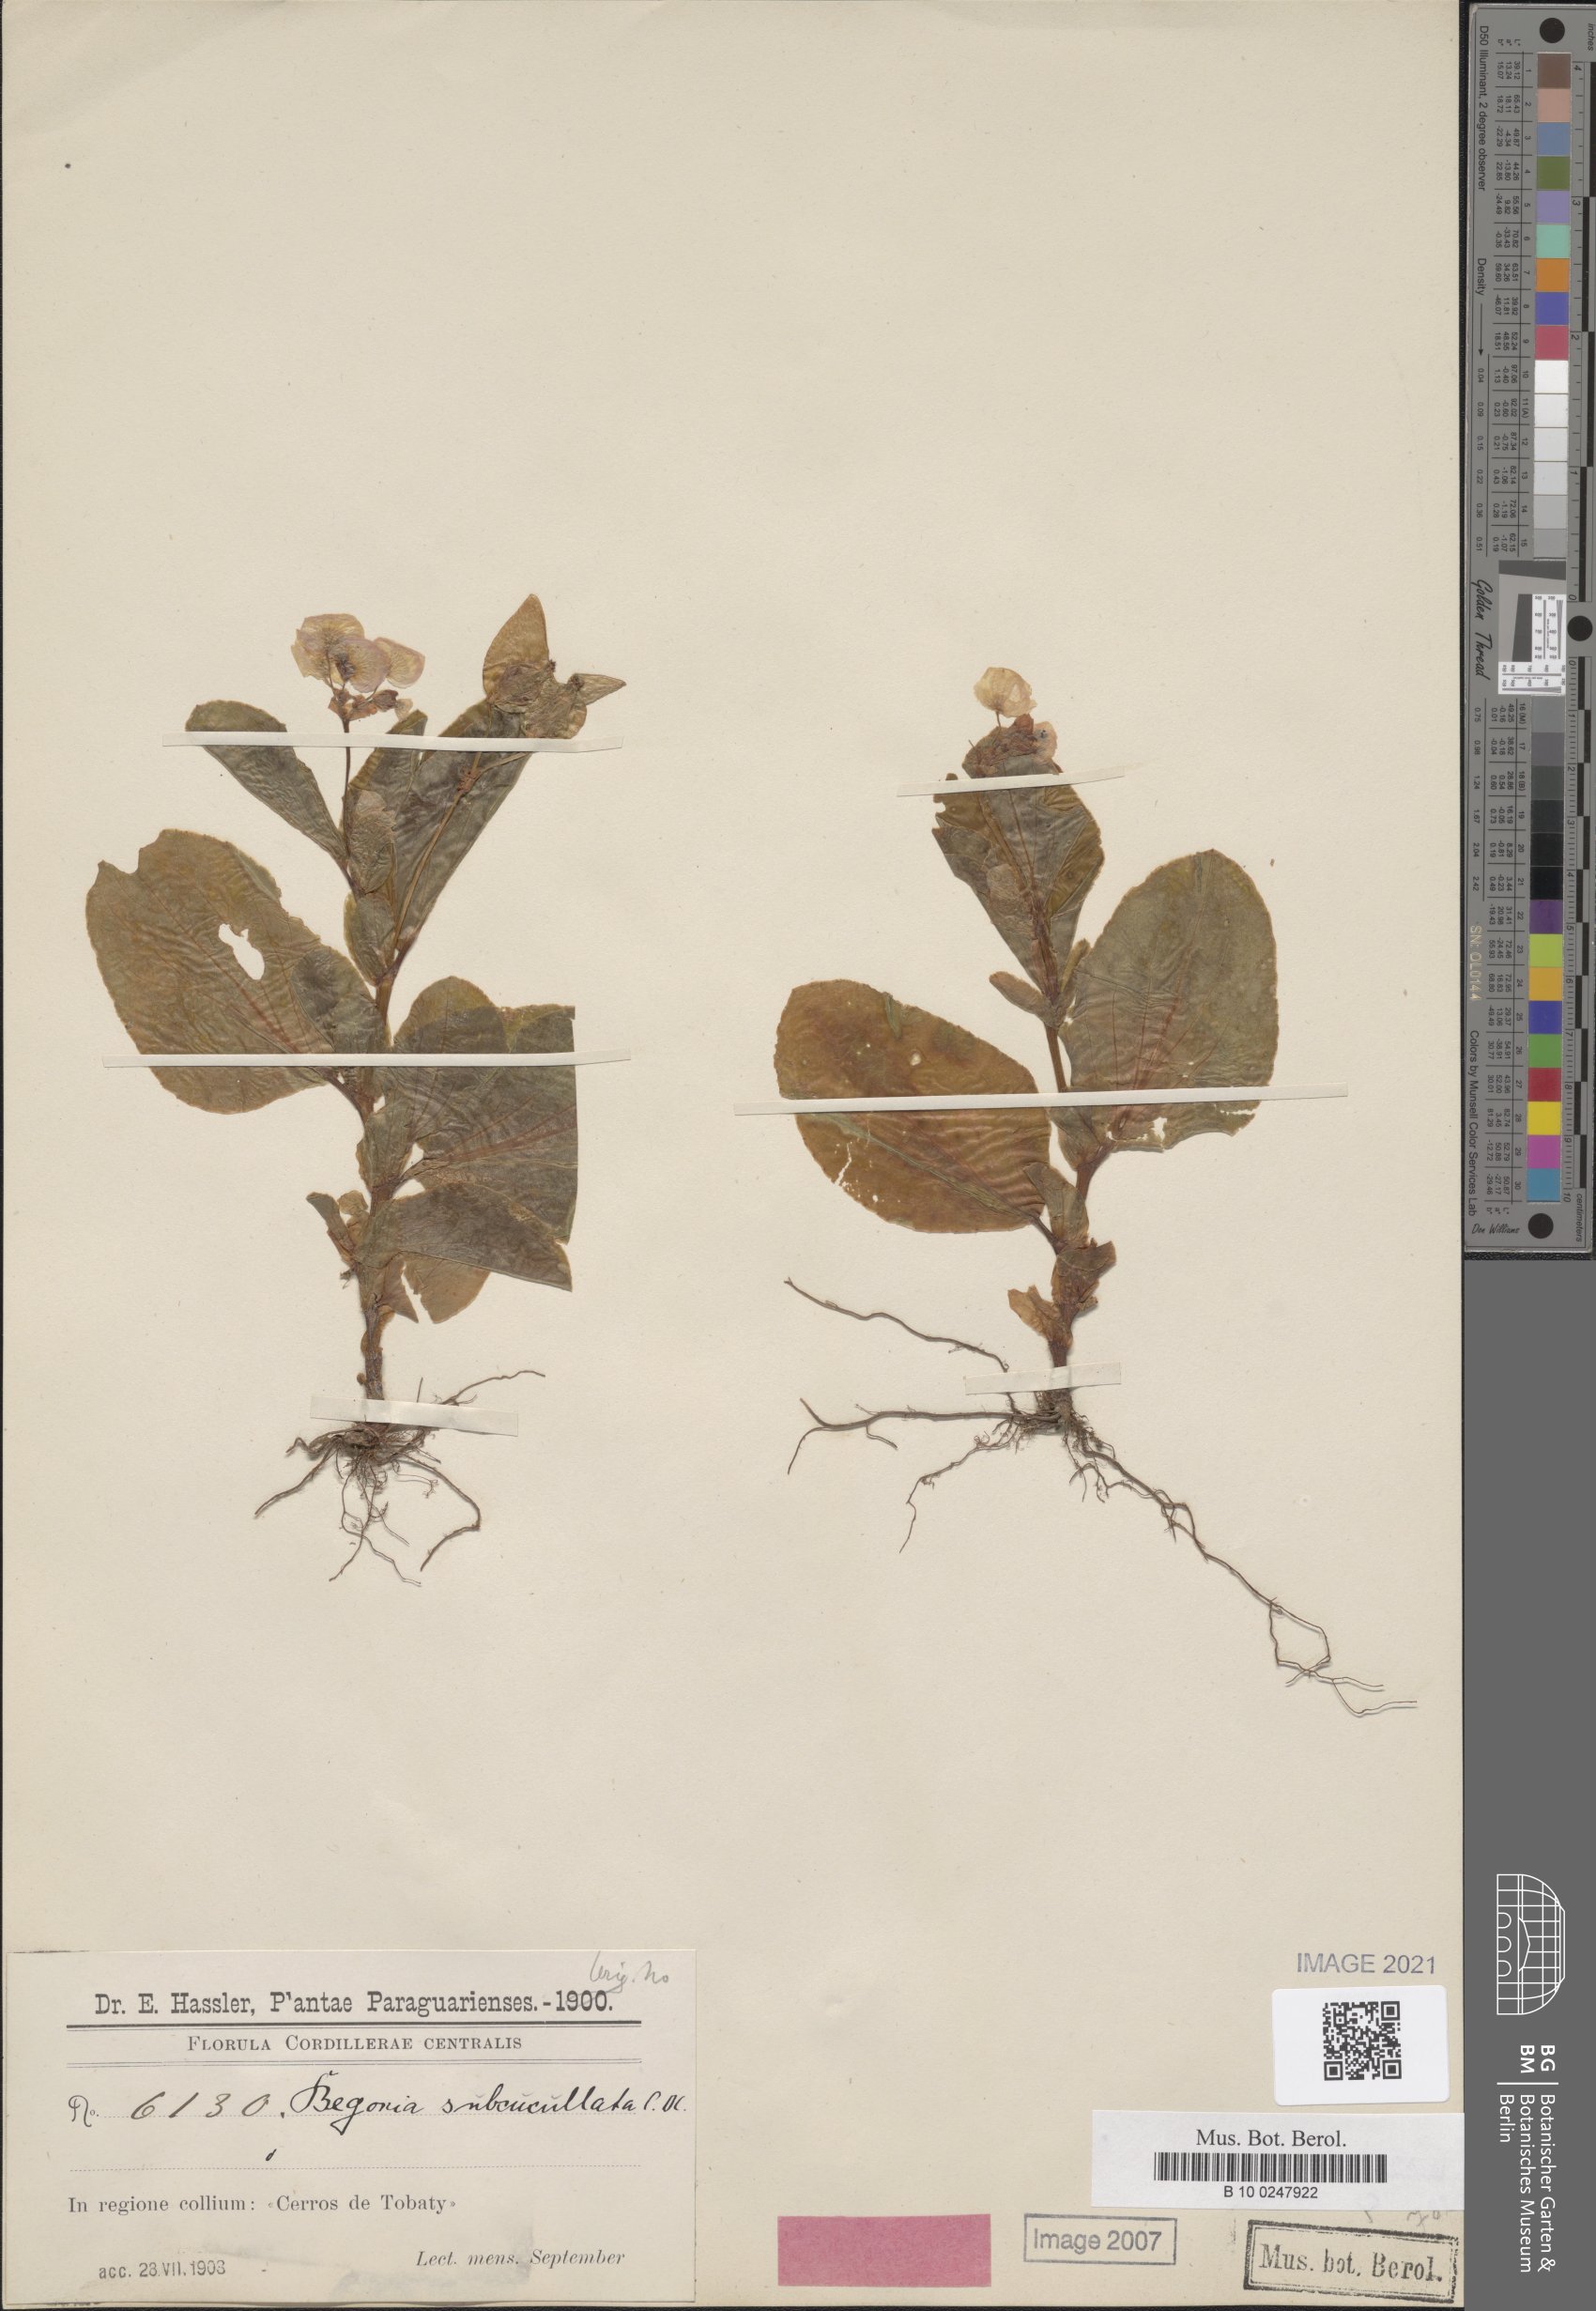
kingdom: Plantae
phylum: Tracheophyta
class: Magnoliopsida
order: Cucurbitales
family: Begoniaceae
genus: Begonia
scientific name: Begonia cucullata
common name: Clubbed begonia
